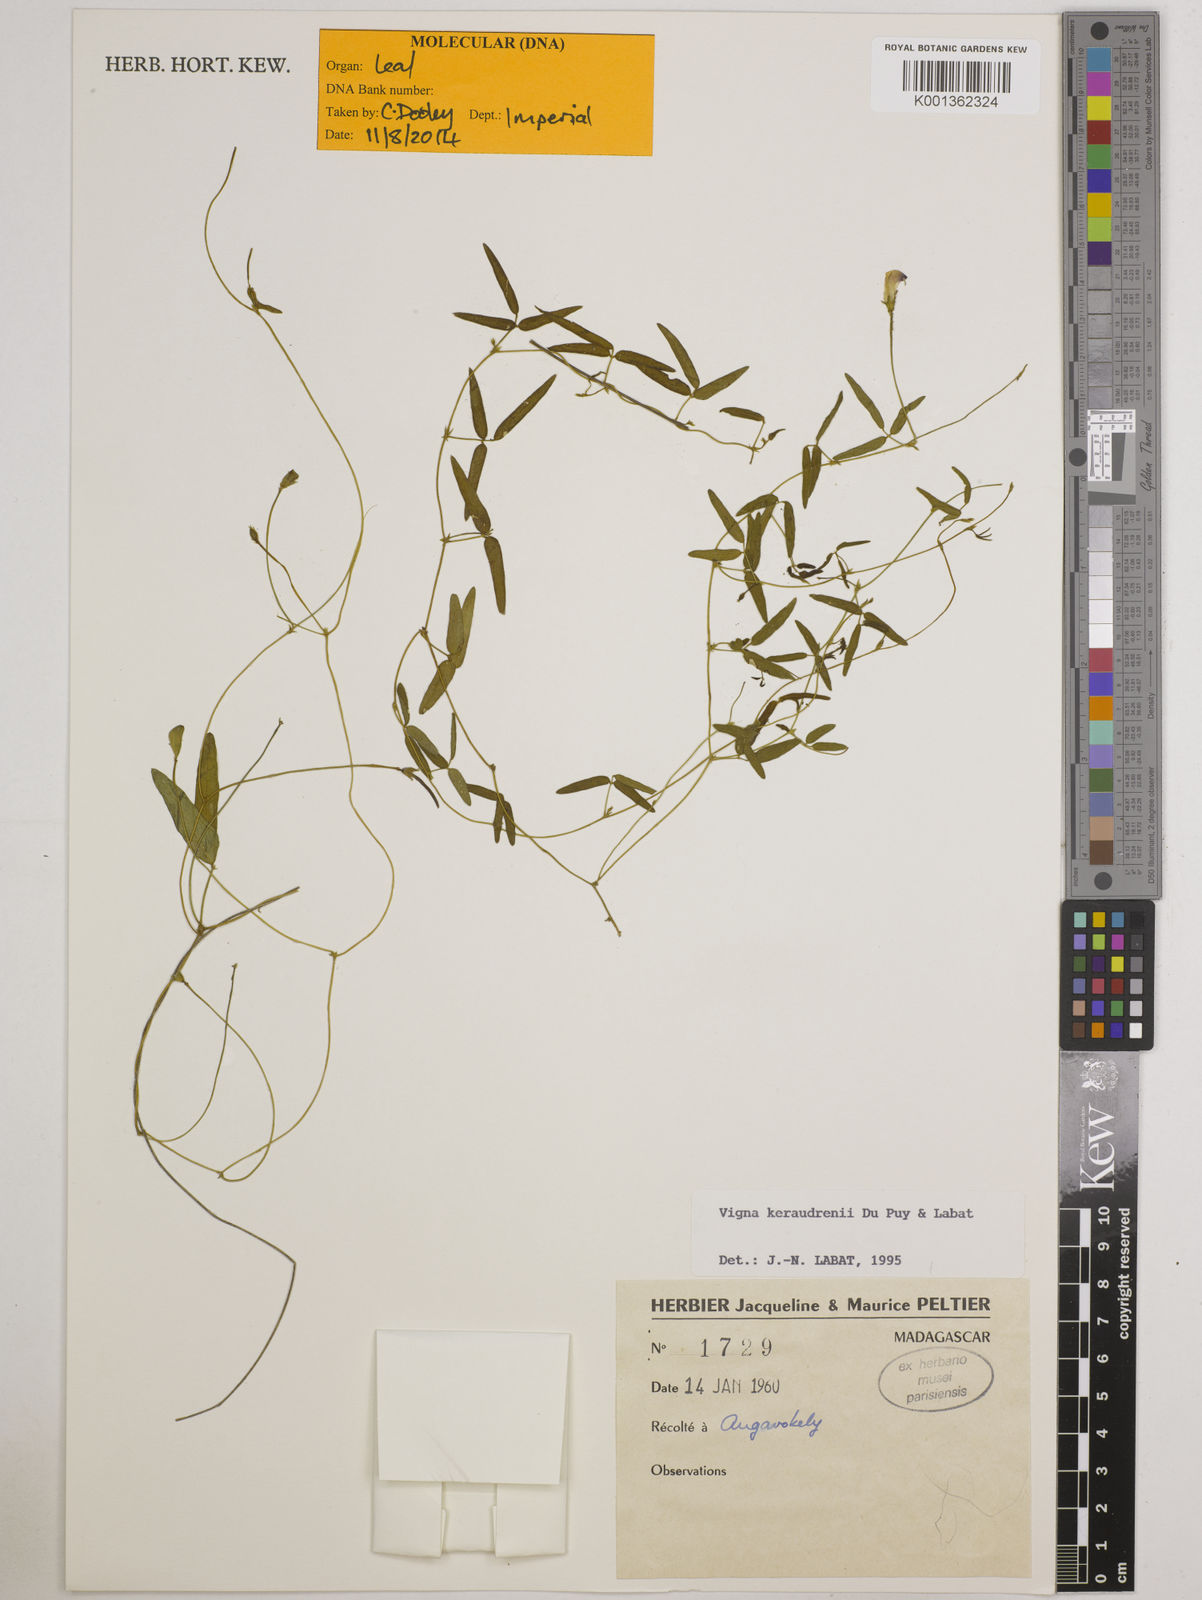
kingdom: Plantae
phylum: Tracheophyta
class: Magnoliopsida
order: Fabales
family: Fabaceae
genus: Vigna
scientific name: Vigna keraudrenii
